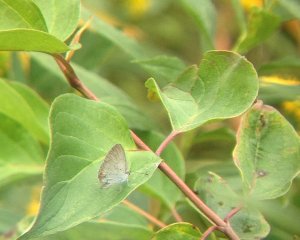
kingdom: Animalia
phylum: Arthropoda
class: Insecta
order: Lepidoptera
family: Lycaenidae
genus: Elkalyce
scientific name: Elkalyce comyntas
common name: Eastern Tailed-Blue
